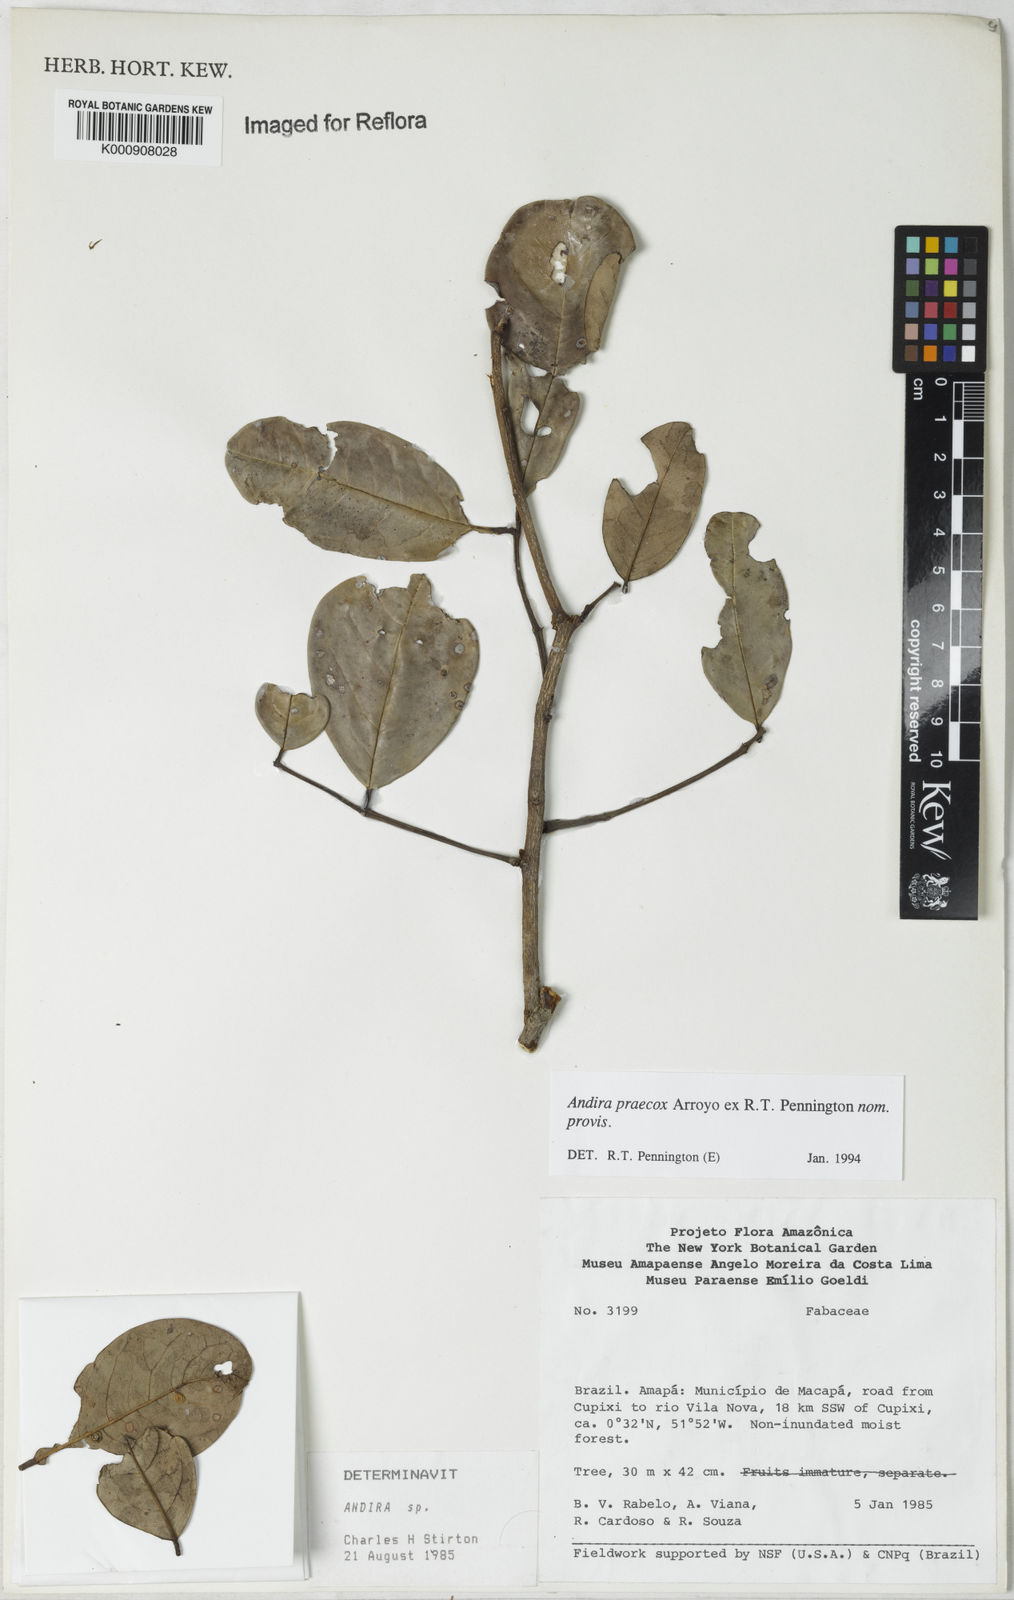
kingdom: Plantae
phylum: Tracheophyta
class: Magnoliopsida
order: Fabales
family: Fabaceae
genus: Andira
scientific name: Andira praecox
